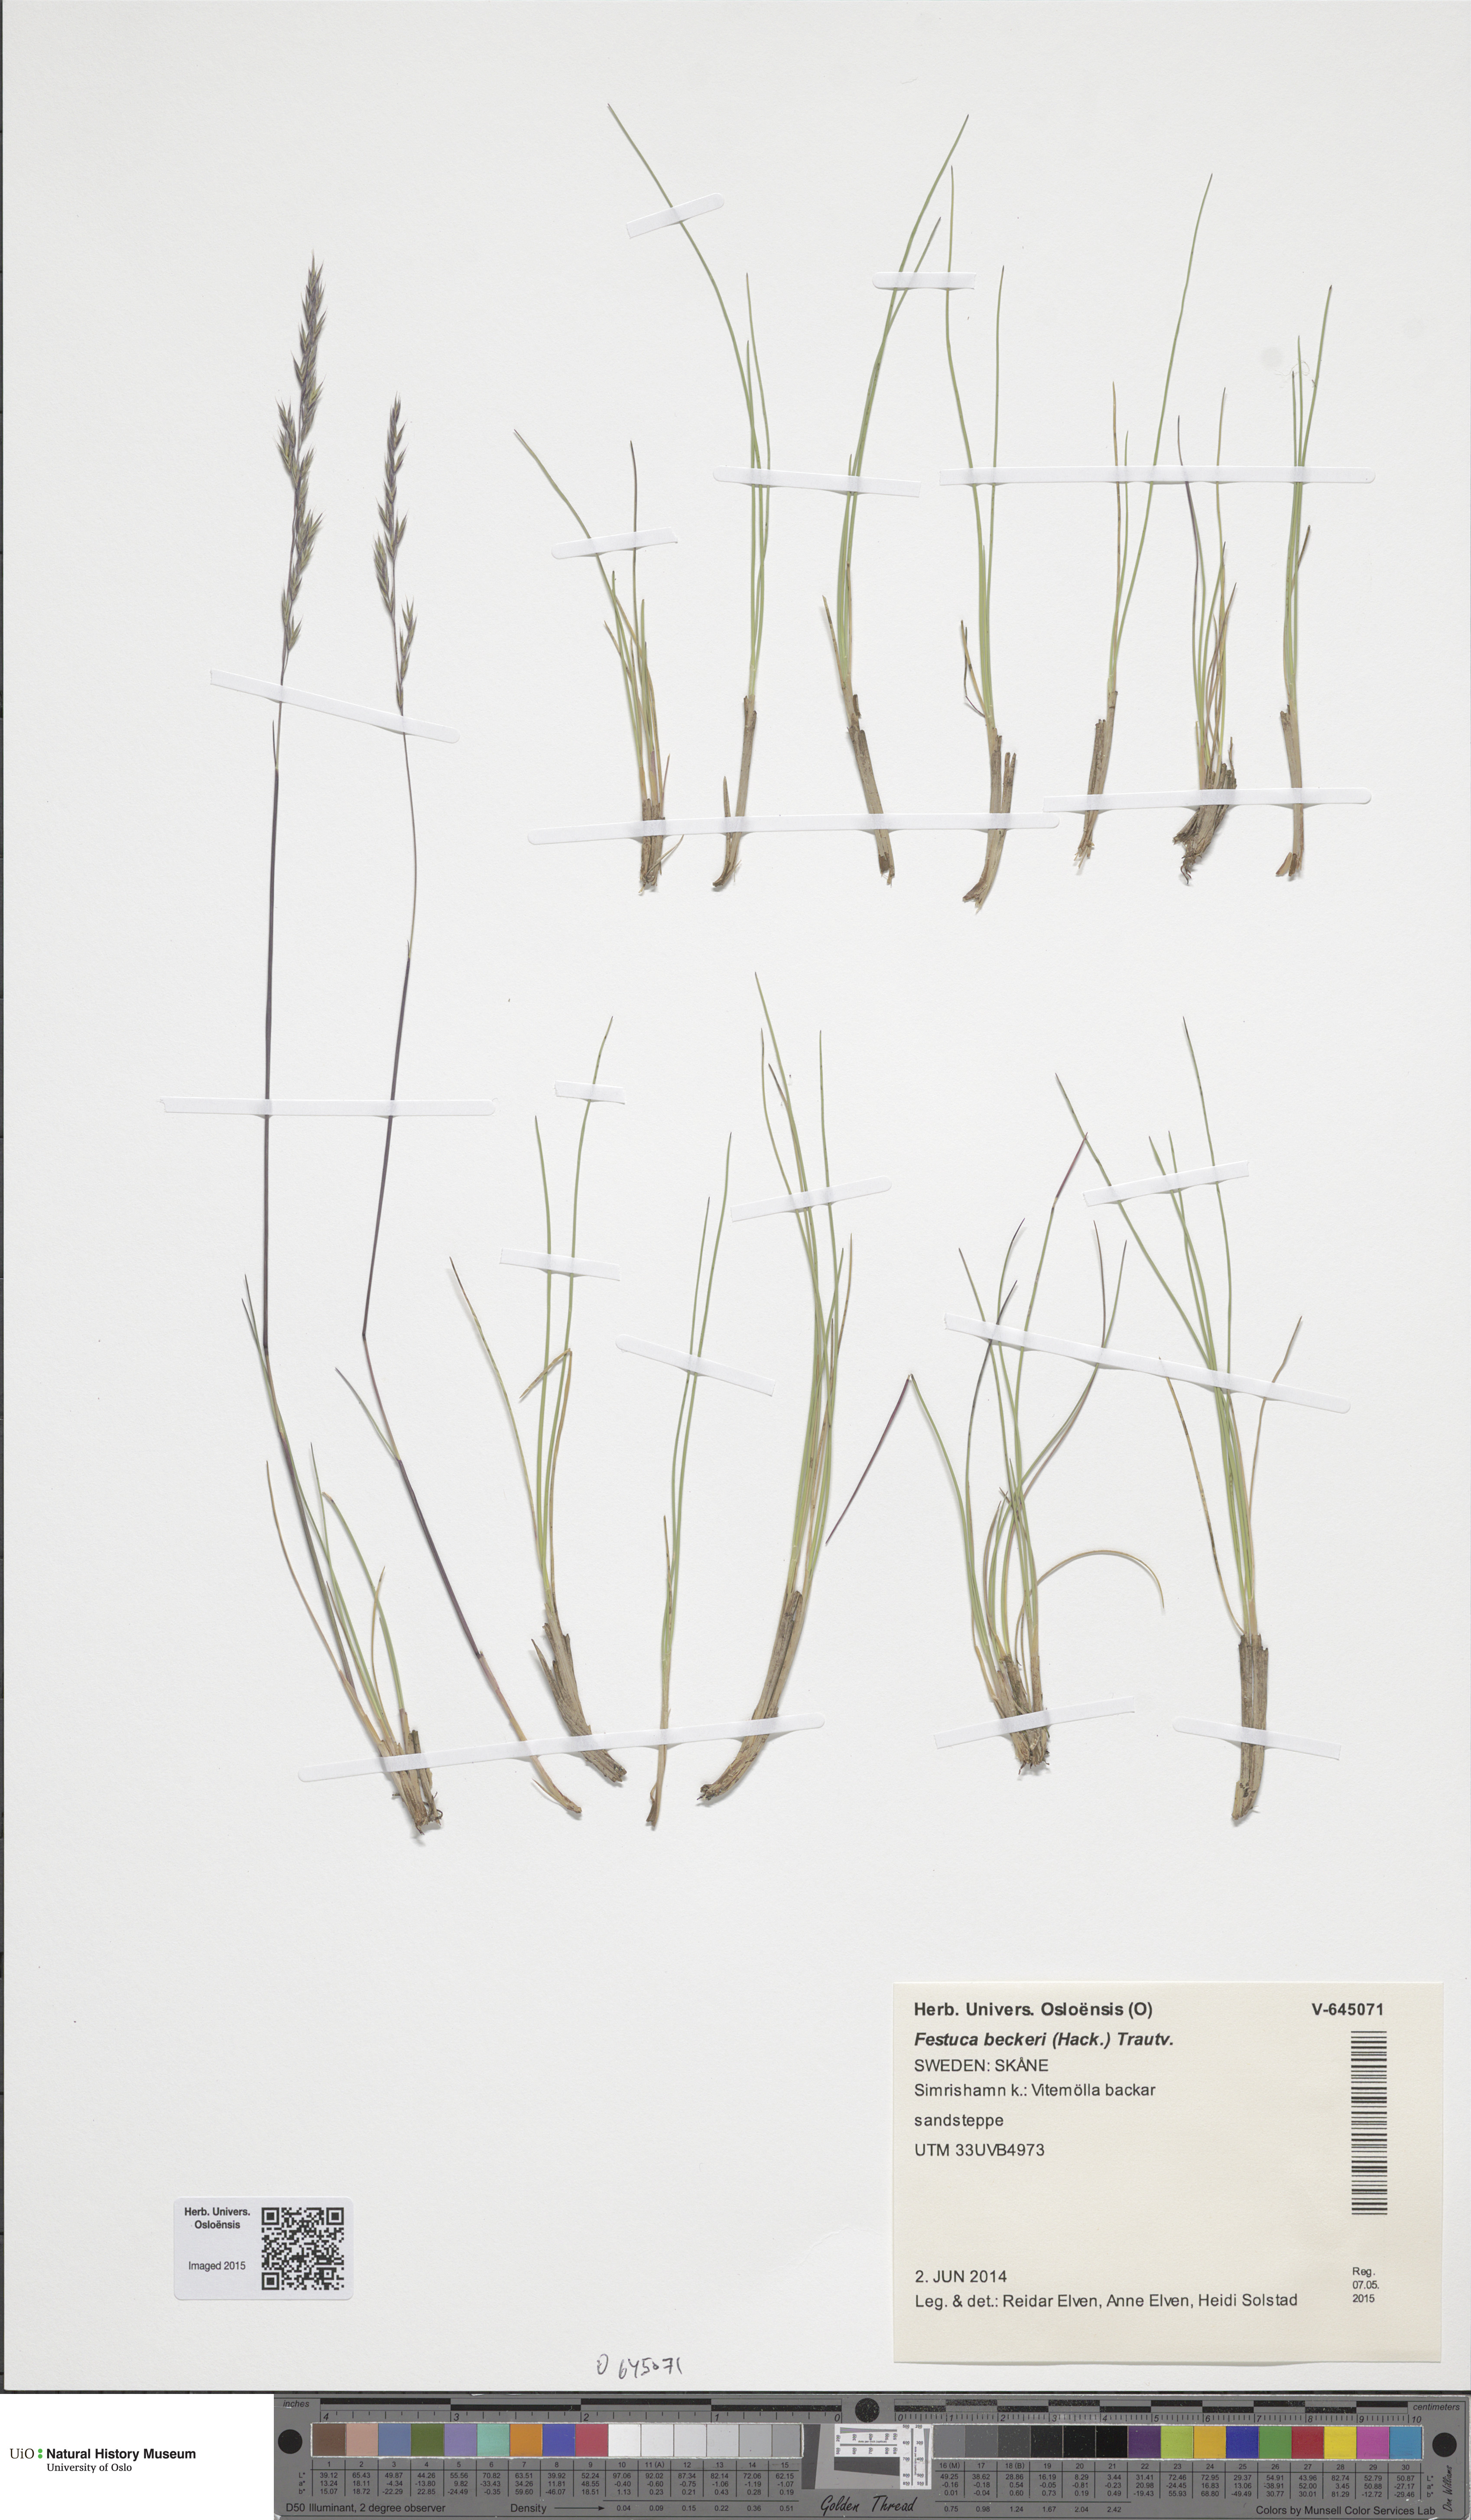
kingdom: Plantae
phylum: Tracheophyta
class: Liliopsida
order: Poales
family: Poaceae
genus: Festuca
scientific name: Festuca beckeri
